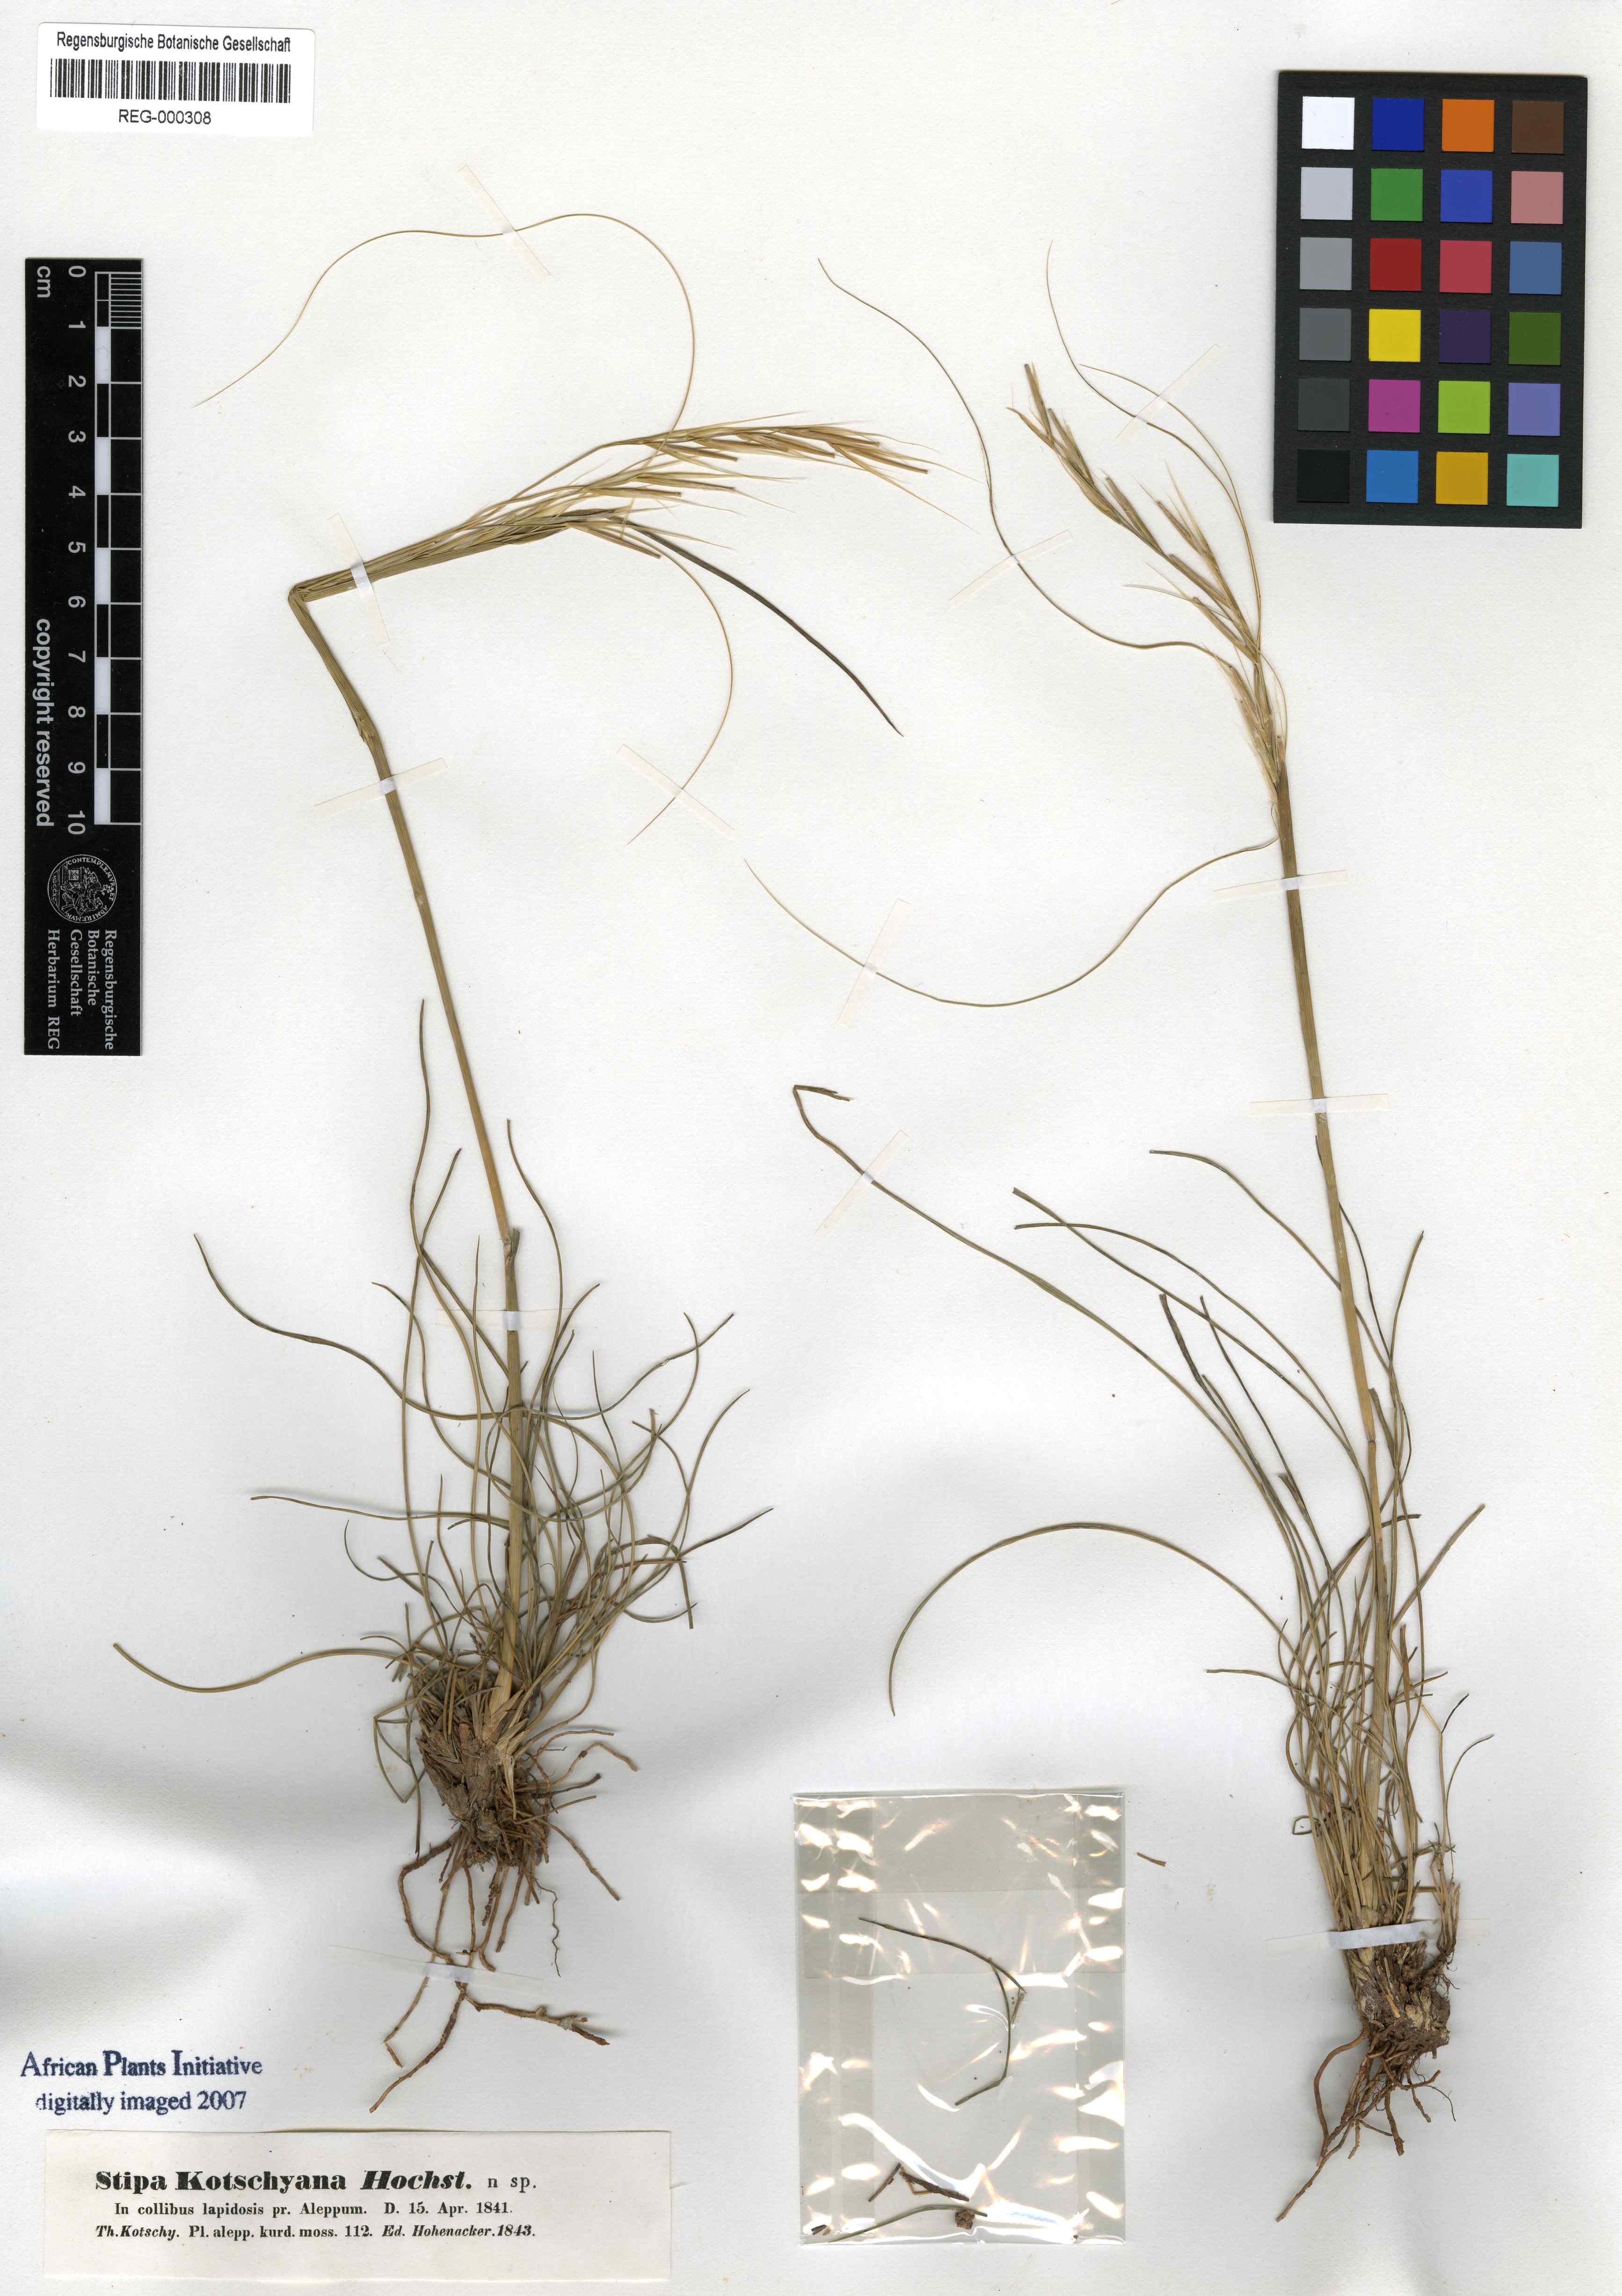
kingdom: Plantae
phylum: Tracheophyta
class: Liliopsida
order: Poales
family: Poaceae
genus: Stipa
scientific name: Stipa kotschyana
